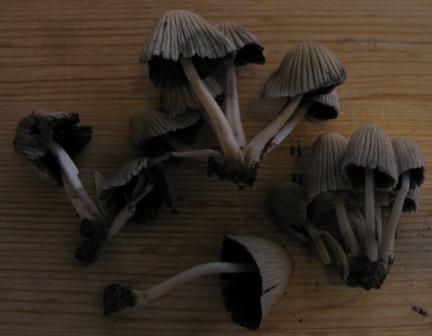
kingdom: Fungi
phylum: Basidiomycota
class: Agaricomycetes
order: Agaricales
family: Psathyrellaceae
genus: Coprinellus
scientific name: Coprinellus disseminatus
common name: bredsået blækhat
